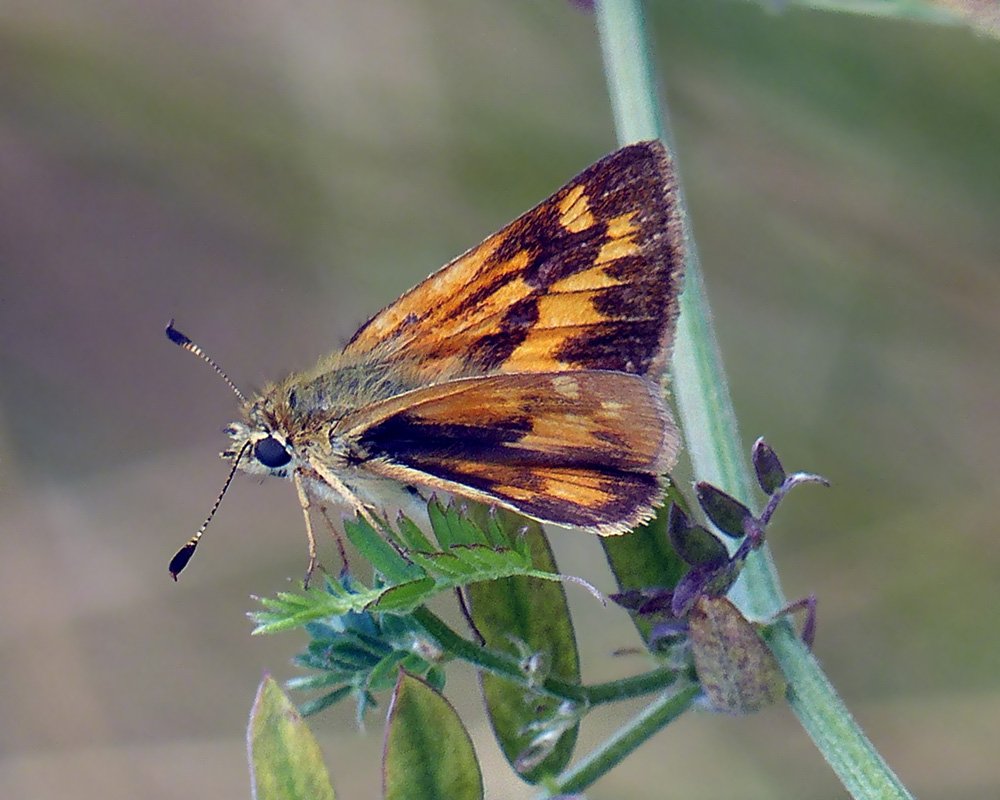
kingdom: Animalia
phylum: Arthropoda
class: Insecta
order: Lepidoptera
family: Hesperiidae
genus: Ochlodes
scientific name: Ochlodes sylvanoides
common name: Woodland Skipper
